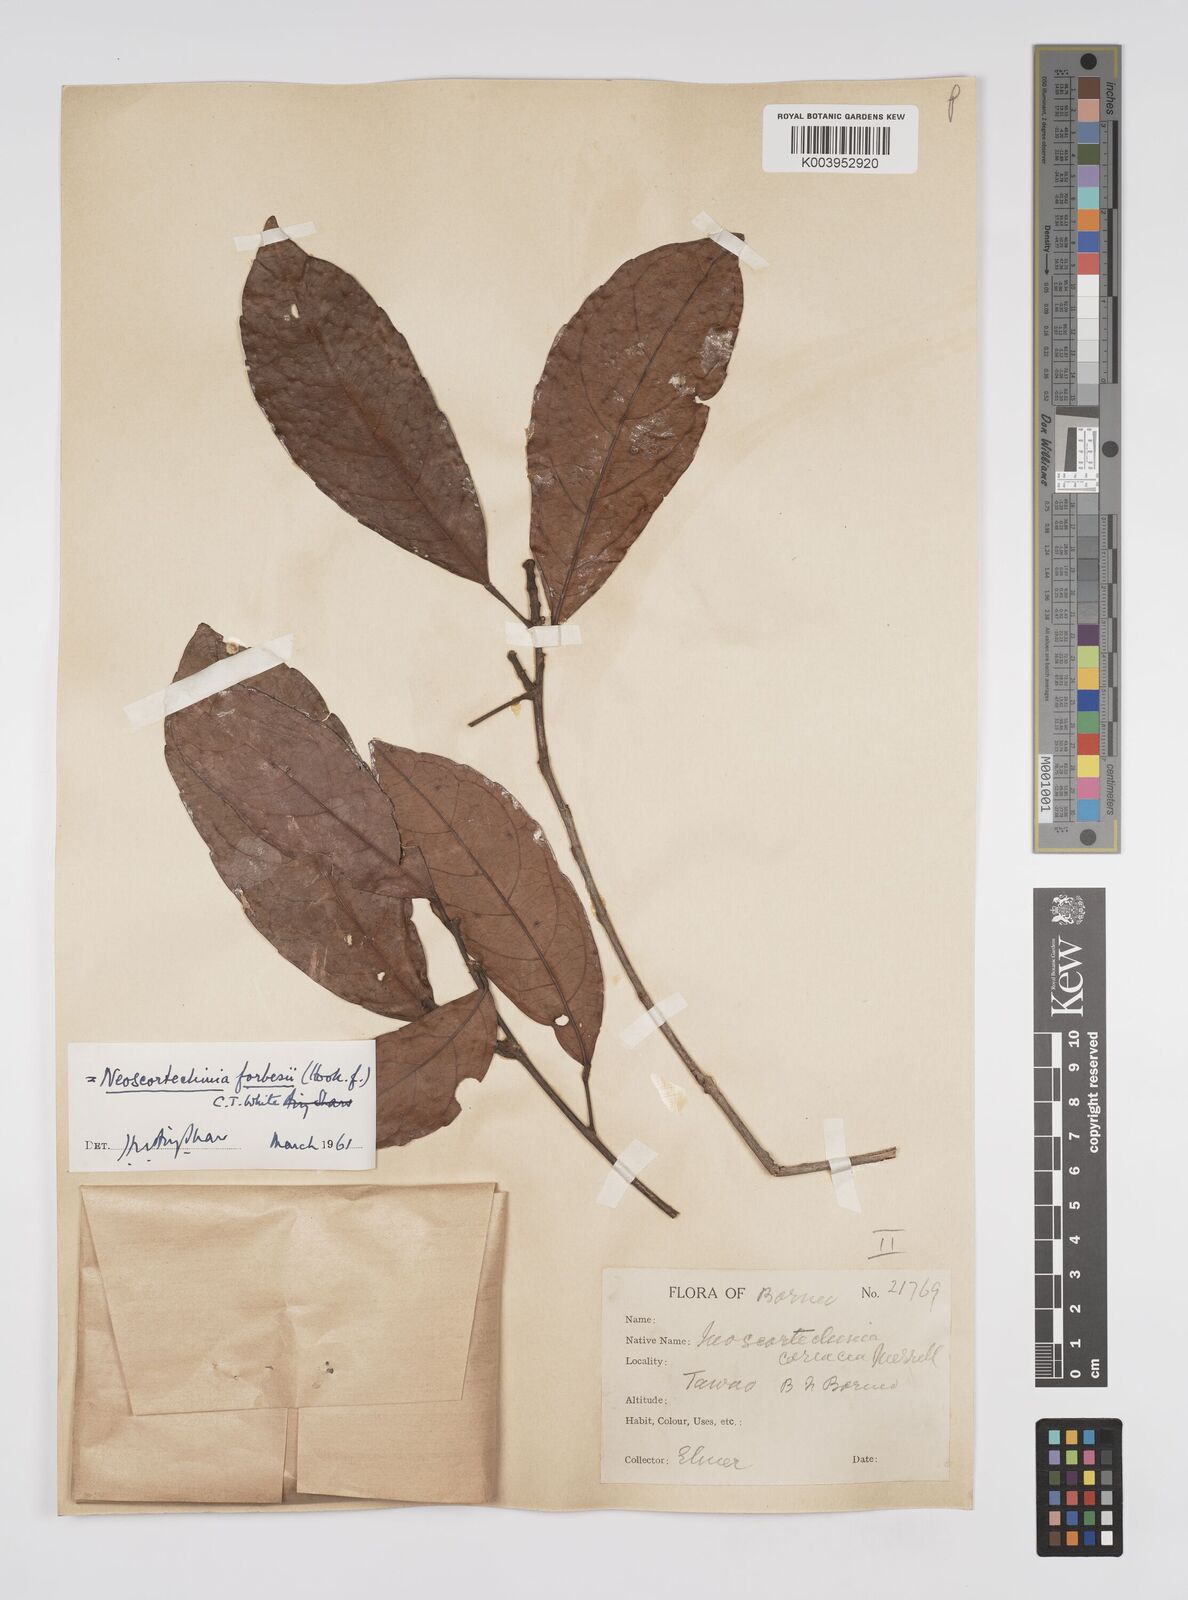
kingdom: Plantae
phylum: Tracheophyta
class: Magnoliopsida
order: Malpighiales
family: Euphorbiaceae
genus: Neoscortechinia
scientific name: Neoscortechinia philippinensis
